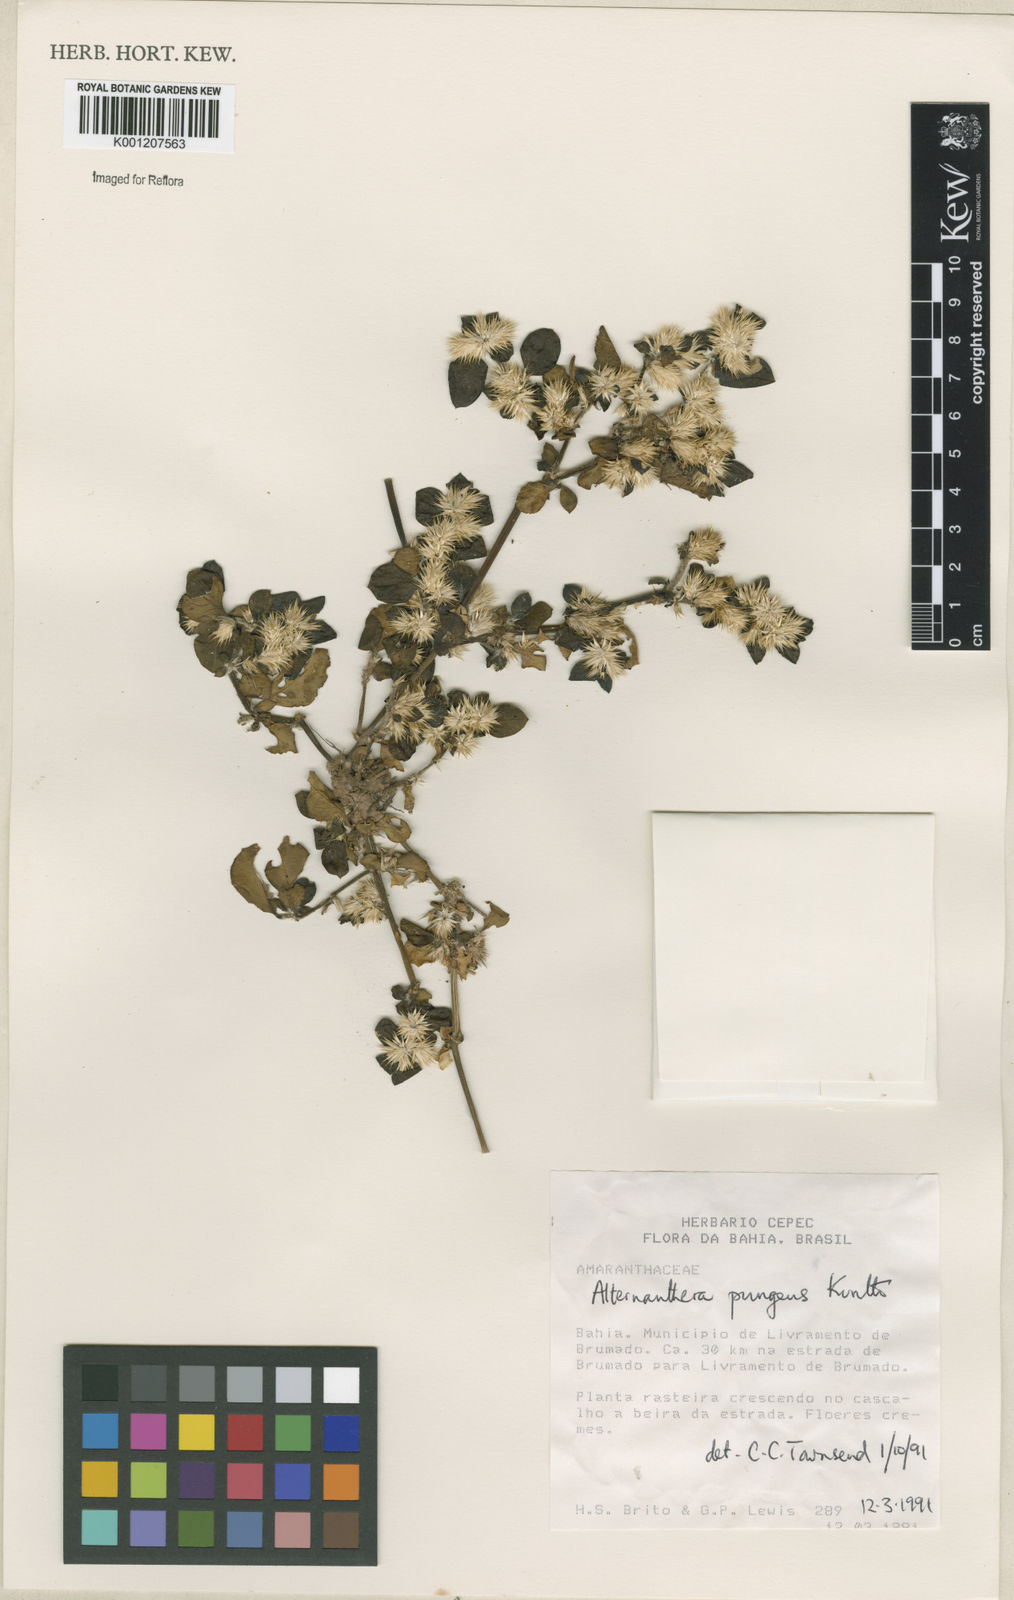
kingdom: Plantae
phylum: Tracheophyta
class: Magnoliopsida
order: Caryophyllales
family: Amaranthaceae
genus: Alternanthera
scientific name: Alternanthera pungens
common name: Khakiweed
